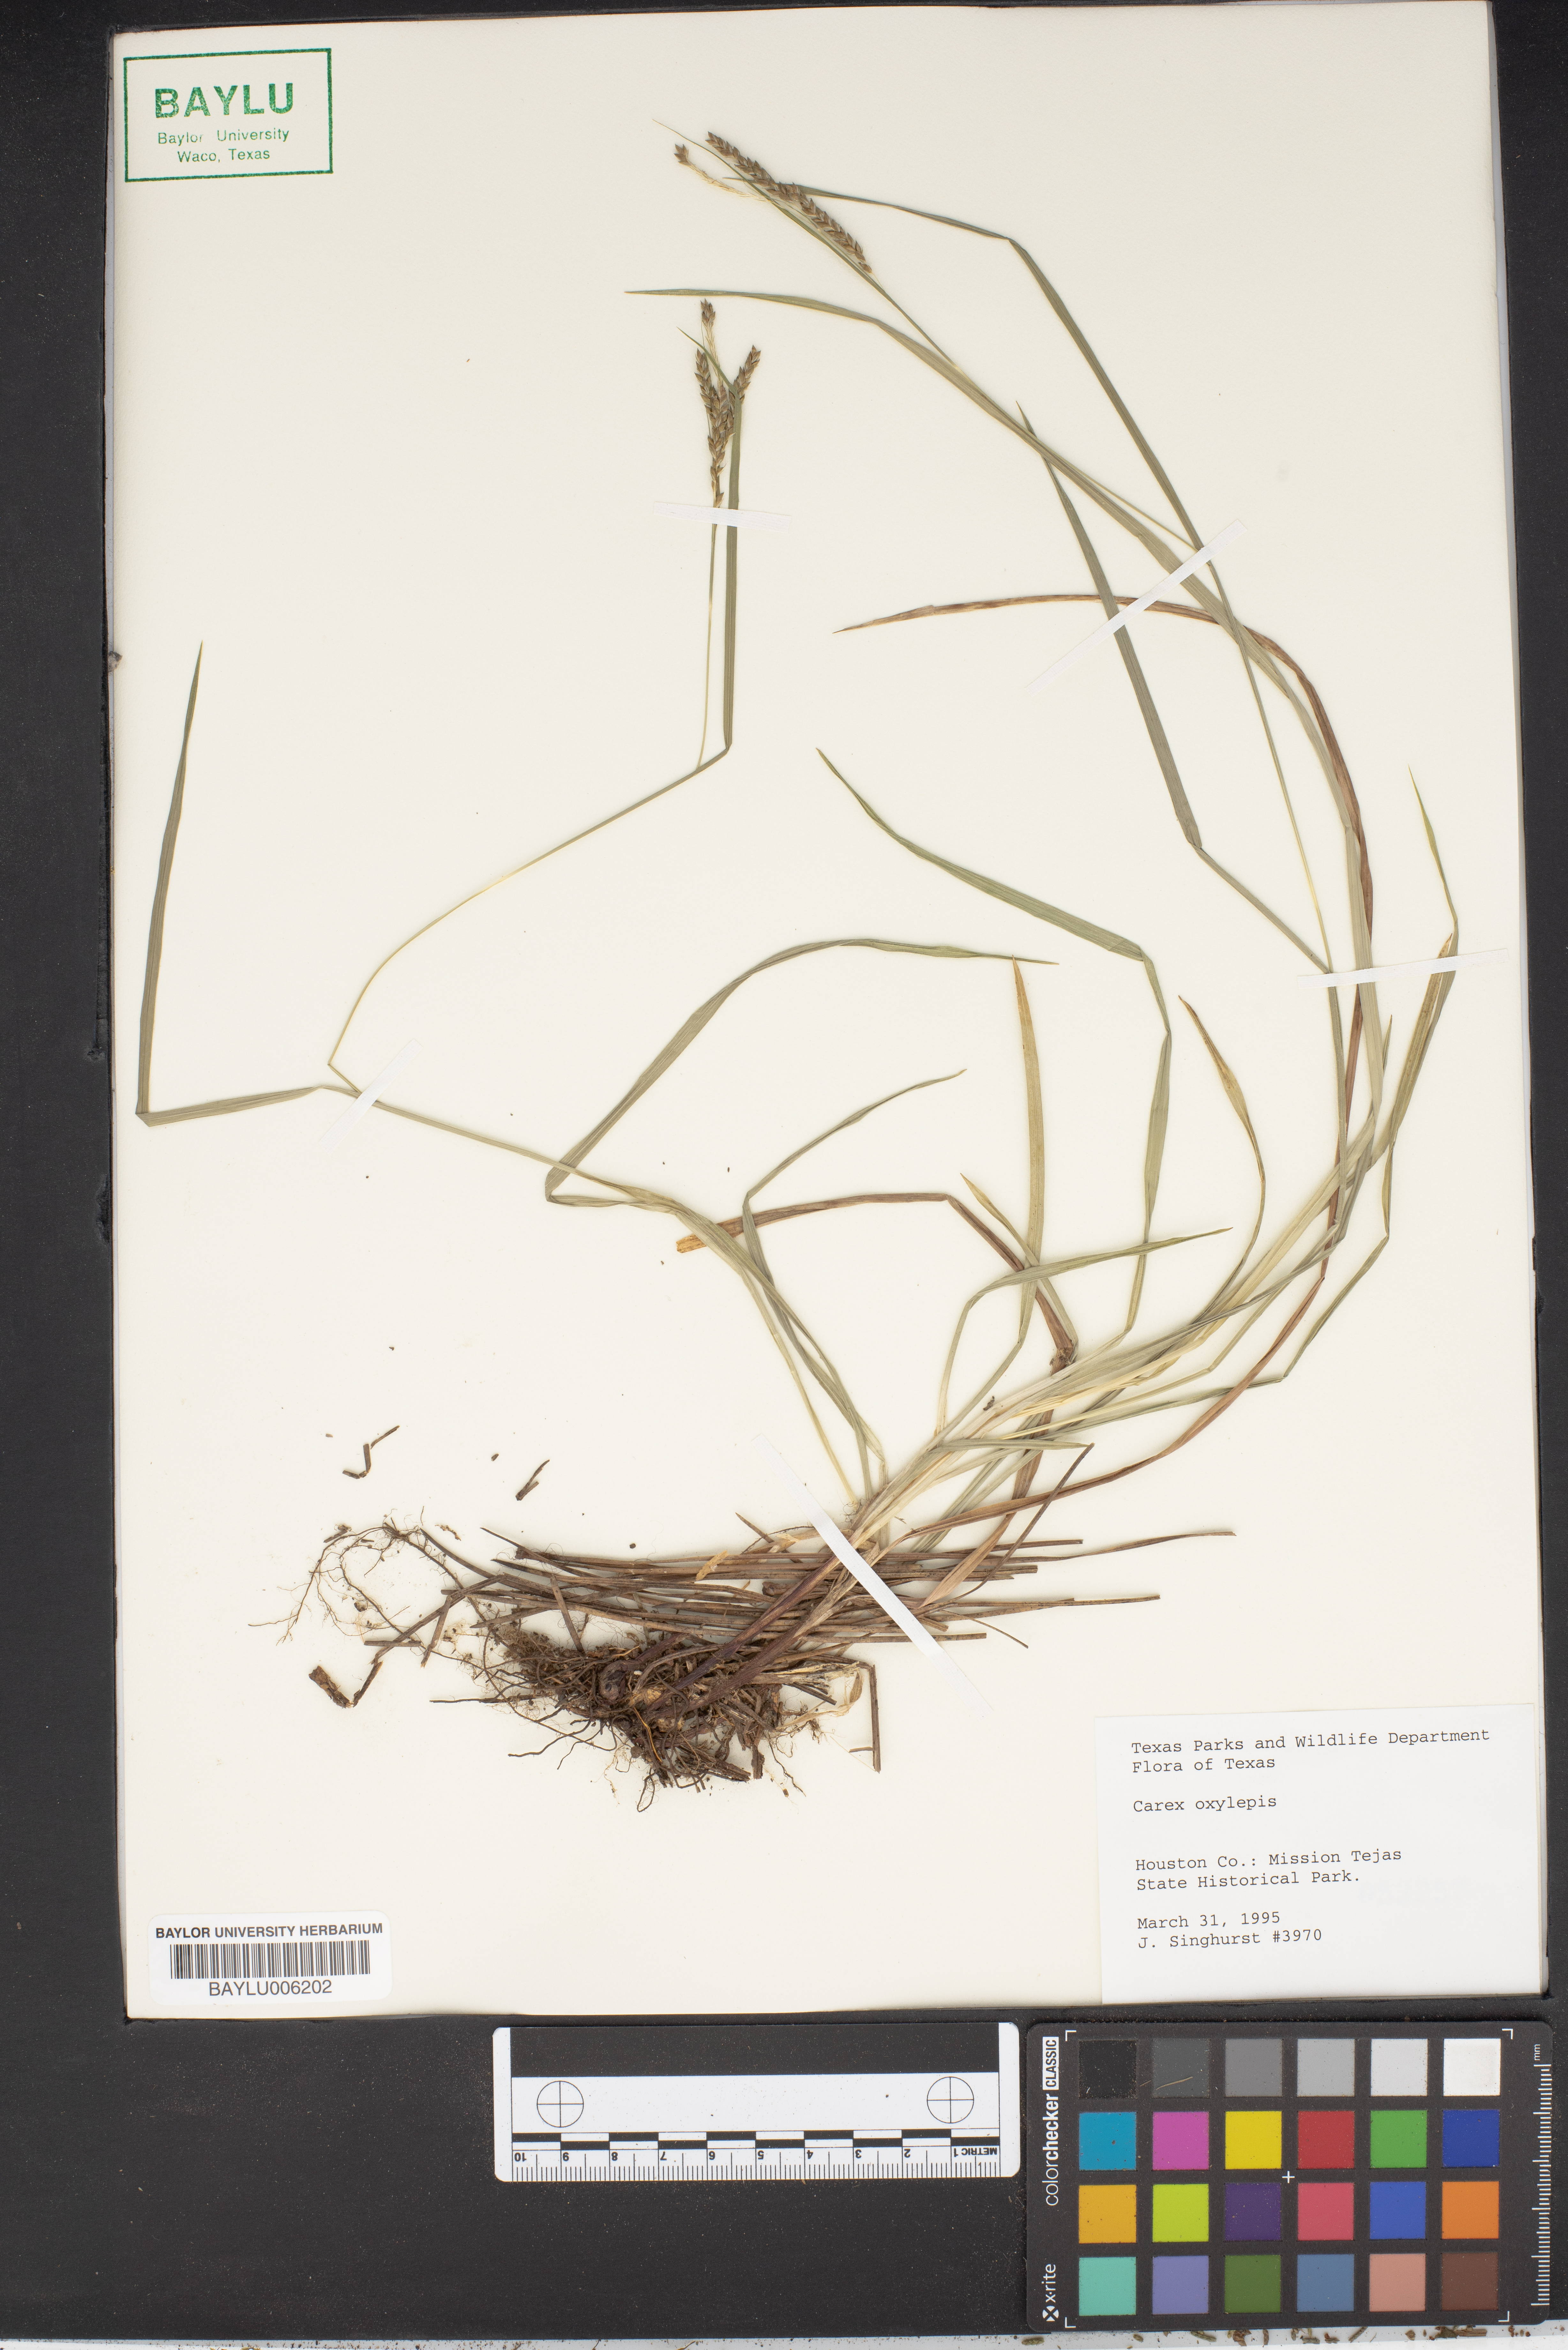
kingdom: Plantae
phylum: Tracheophyta
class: Liliopsida
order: Poales
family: Cyperaceae
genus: Carex
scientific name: Carex oxylepis
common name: Sharpscale sedge
